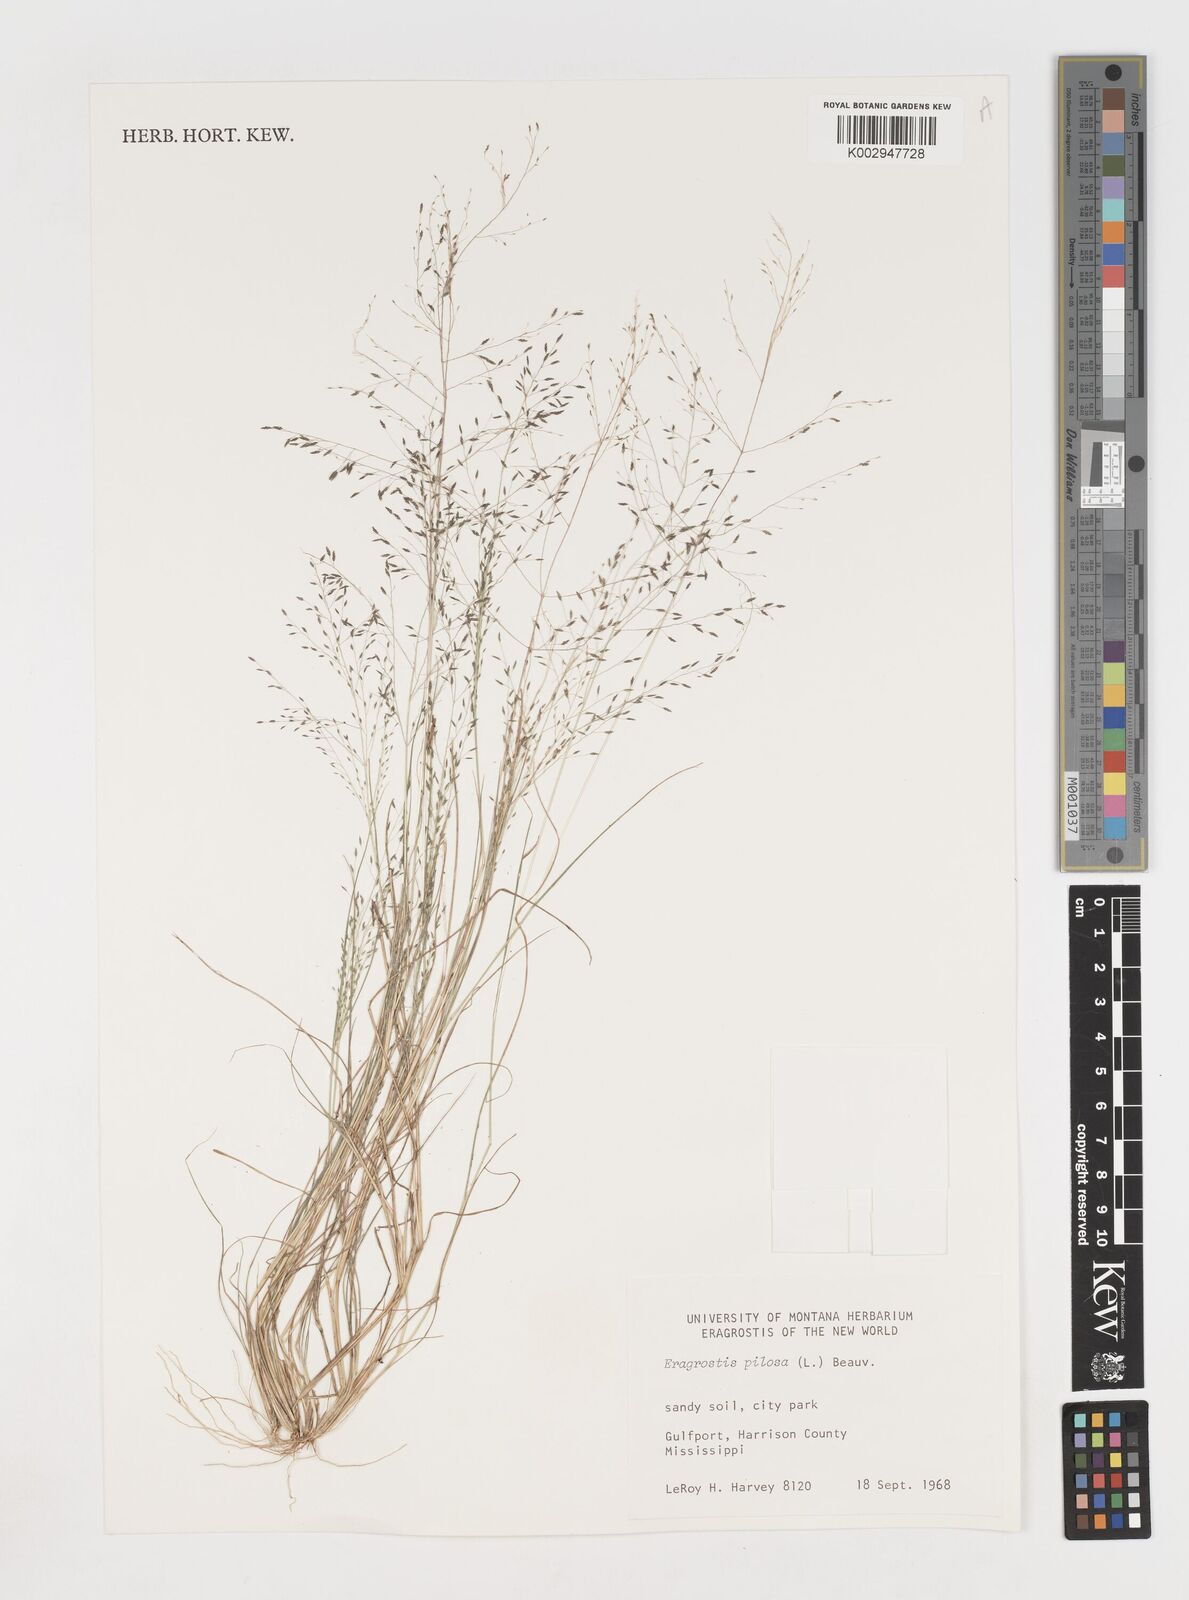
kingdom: Plantae
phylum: Tracheophyta
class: Liliopsida
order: Poales
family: Poaceae
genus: Eragrostis
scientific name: Eragrostis pilosa
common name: Indian lovegrass
